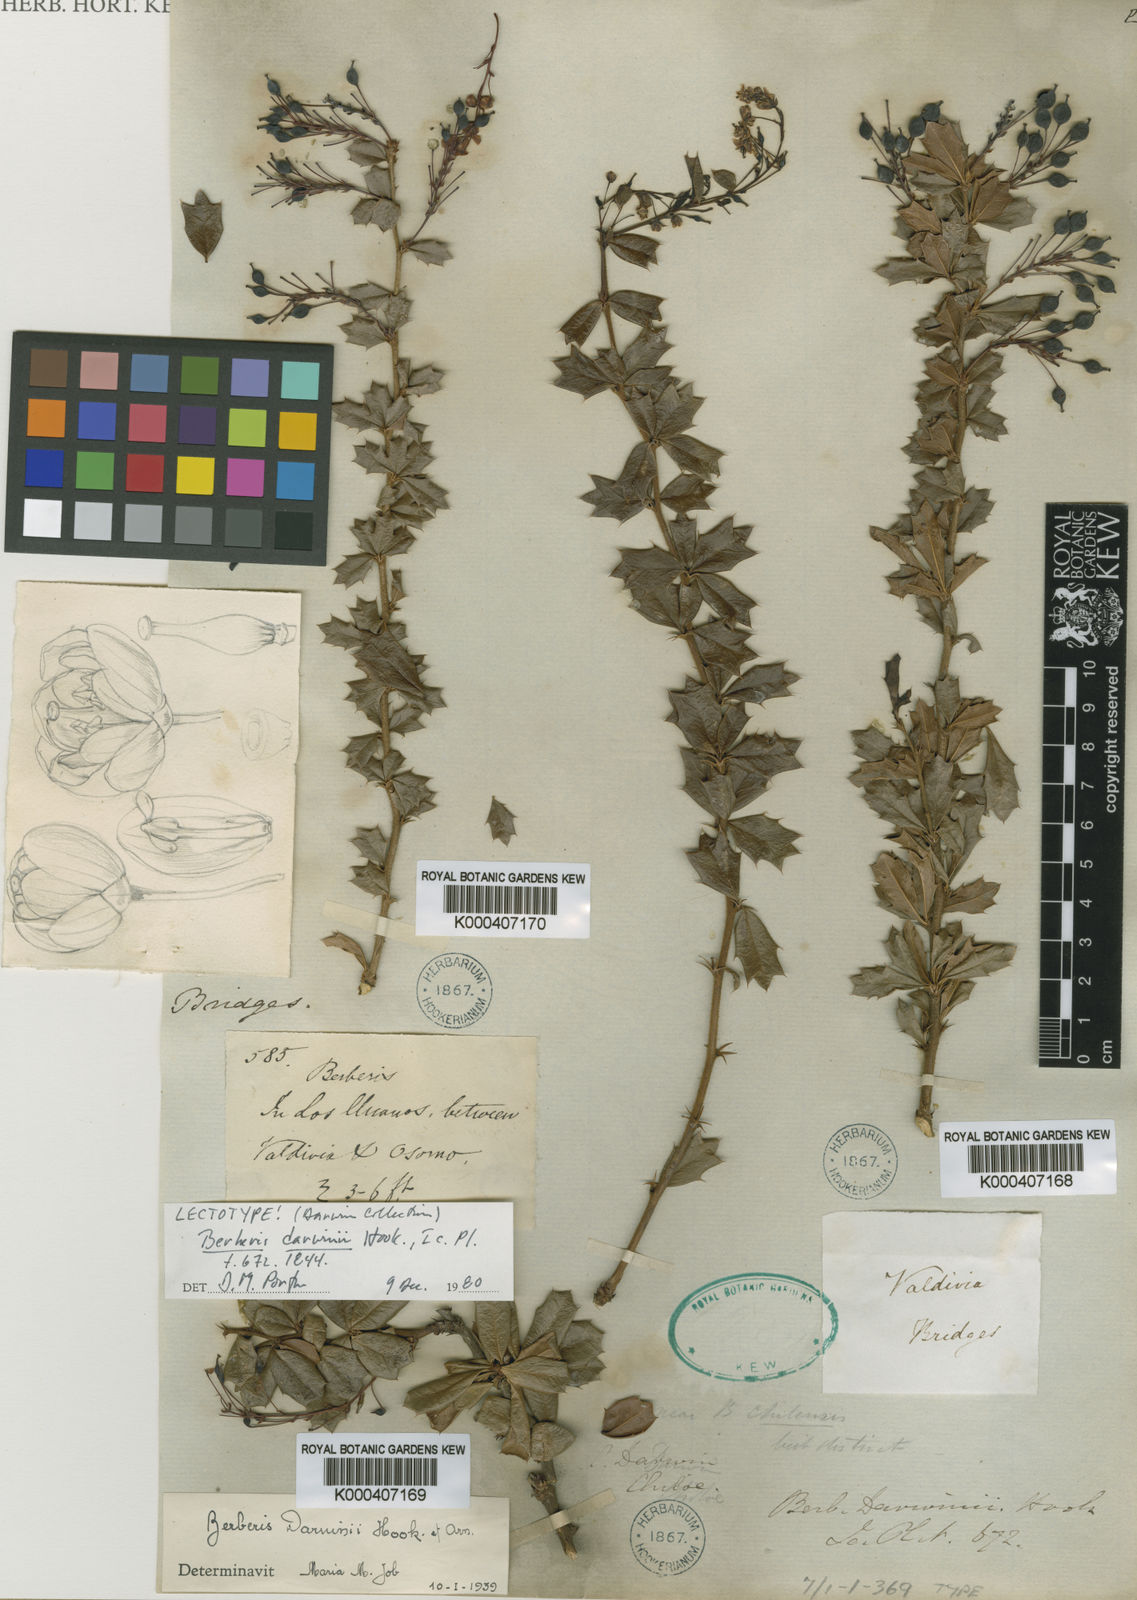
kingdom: Plantae
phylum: Tracheophyta
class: Magnoliopsida
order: Ranunculales
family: Berberidaceae
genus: Berberis
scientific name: Berberis darwinii
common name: Darwin's barberry
